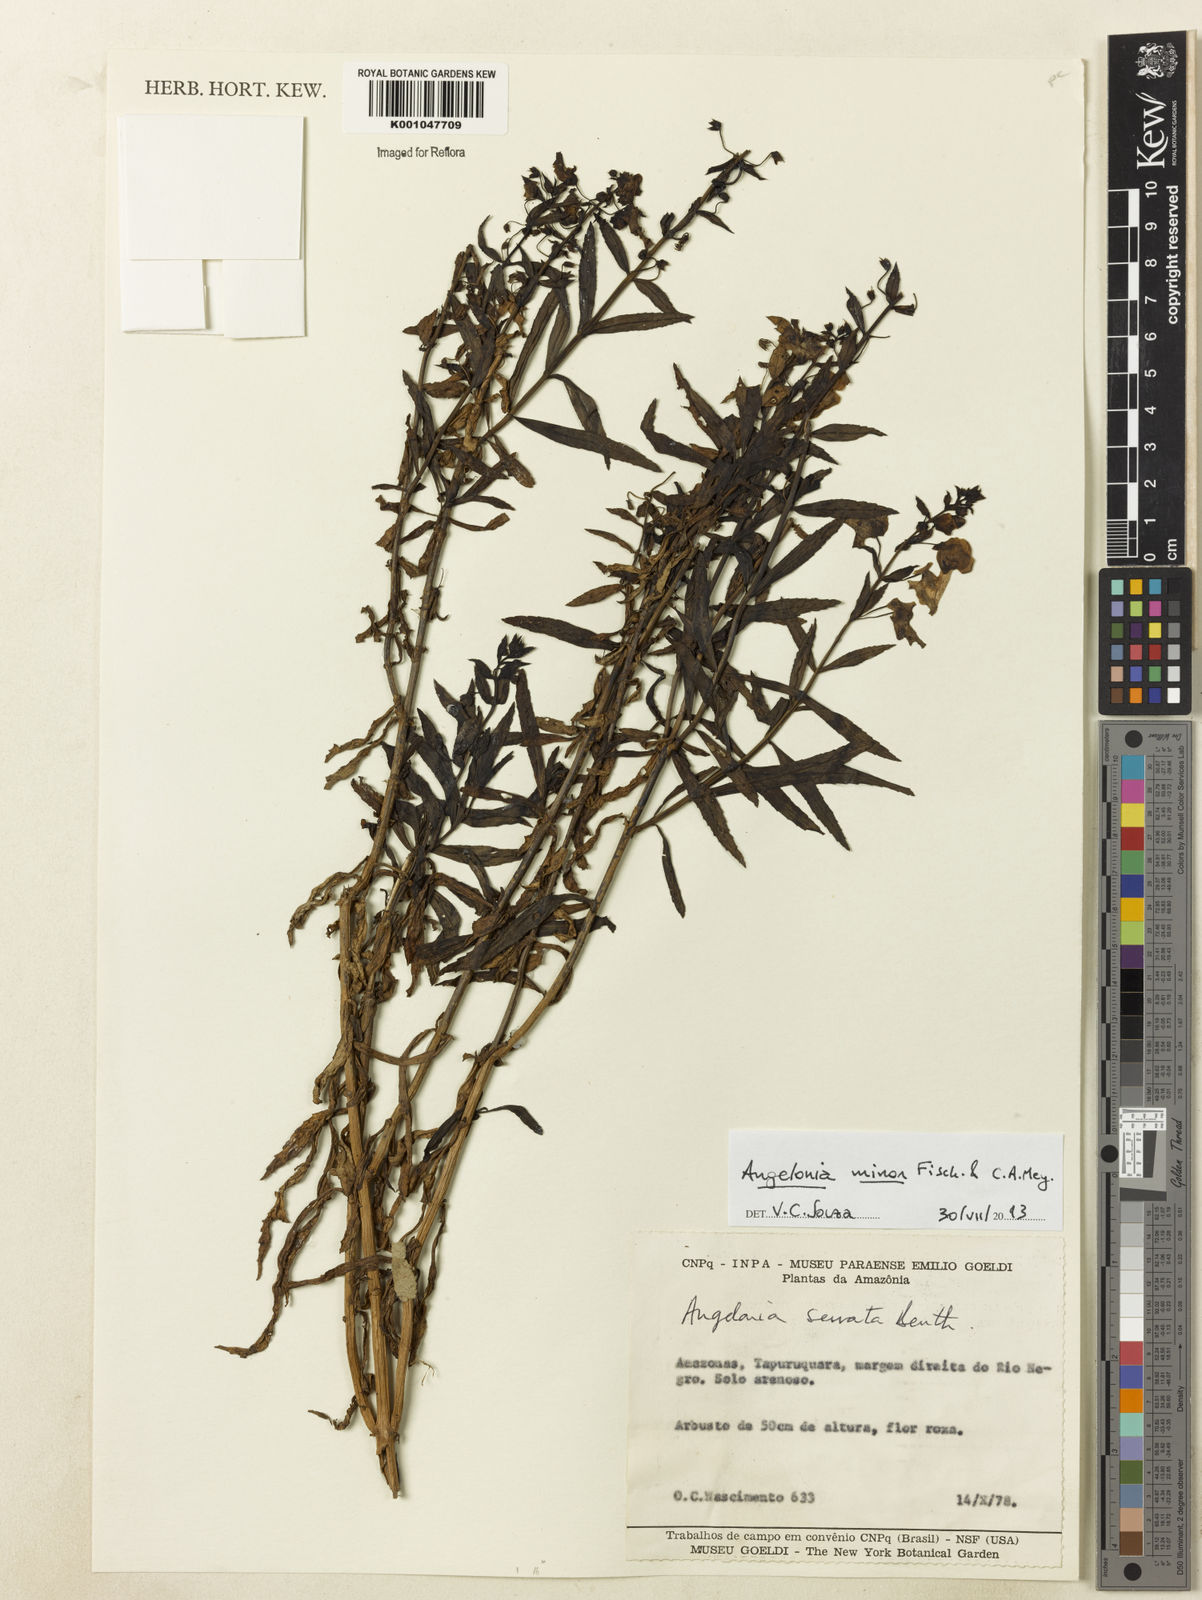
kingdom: Plantae
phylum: Tracheophyta
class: Magnoliopsida
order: Lamiales
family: Plantaginaceae
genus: Angelonia
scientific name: Angelonia minor
